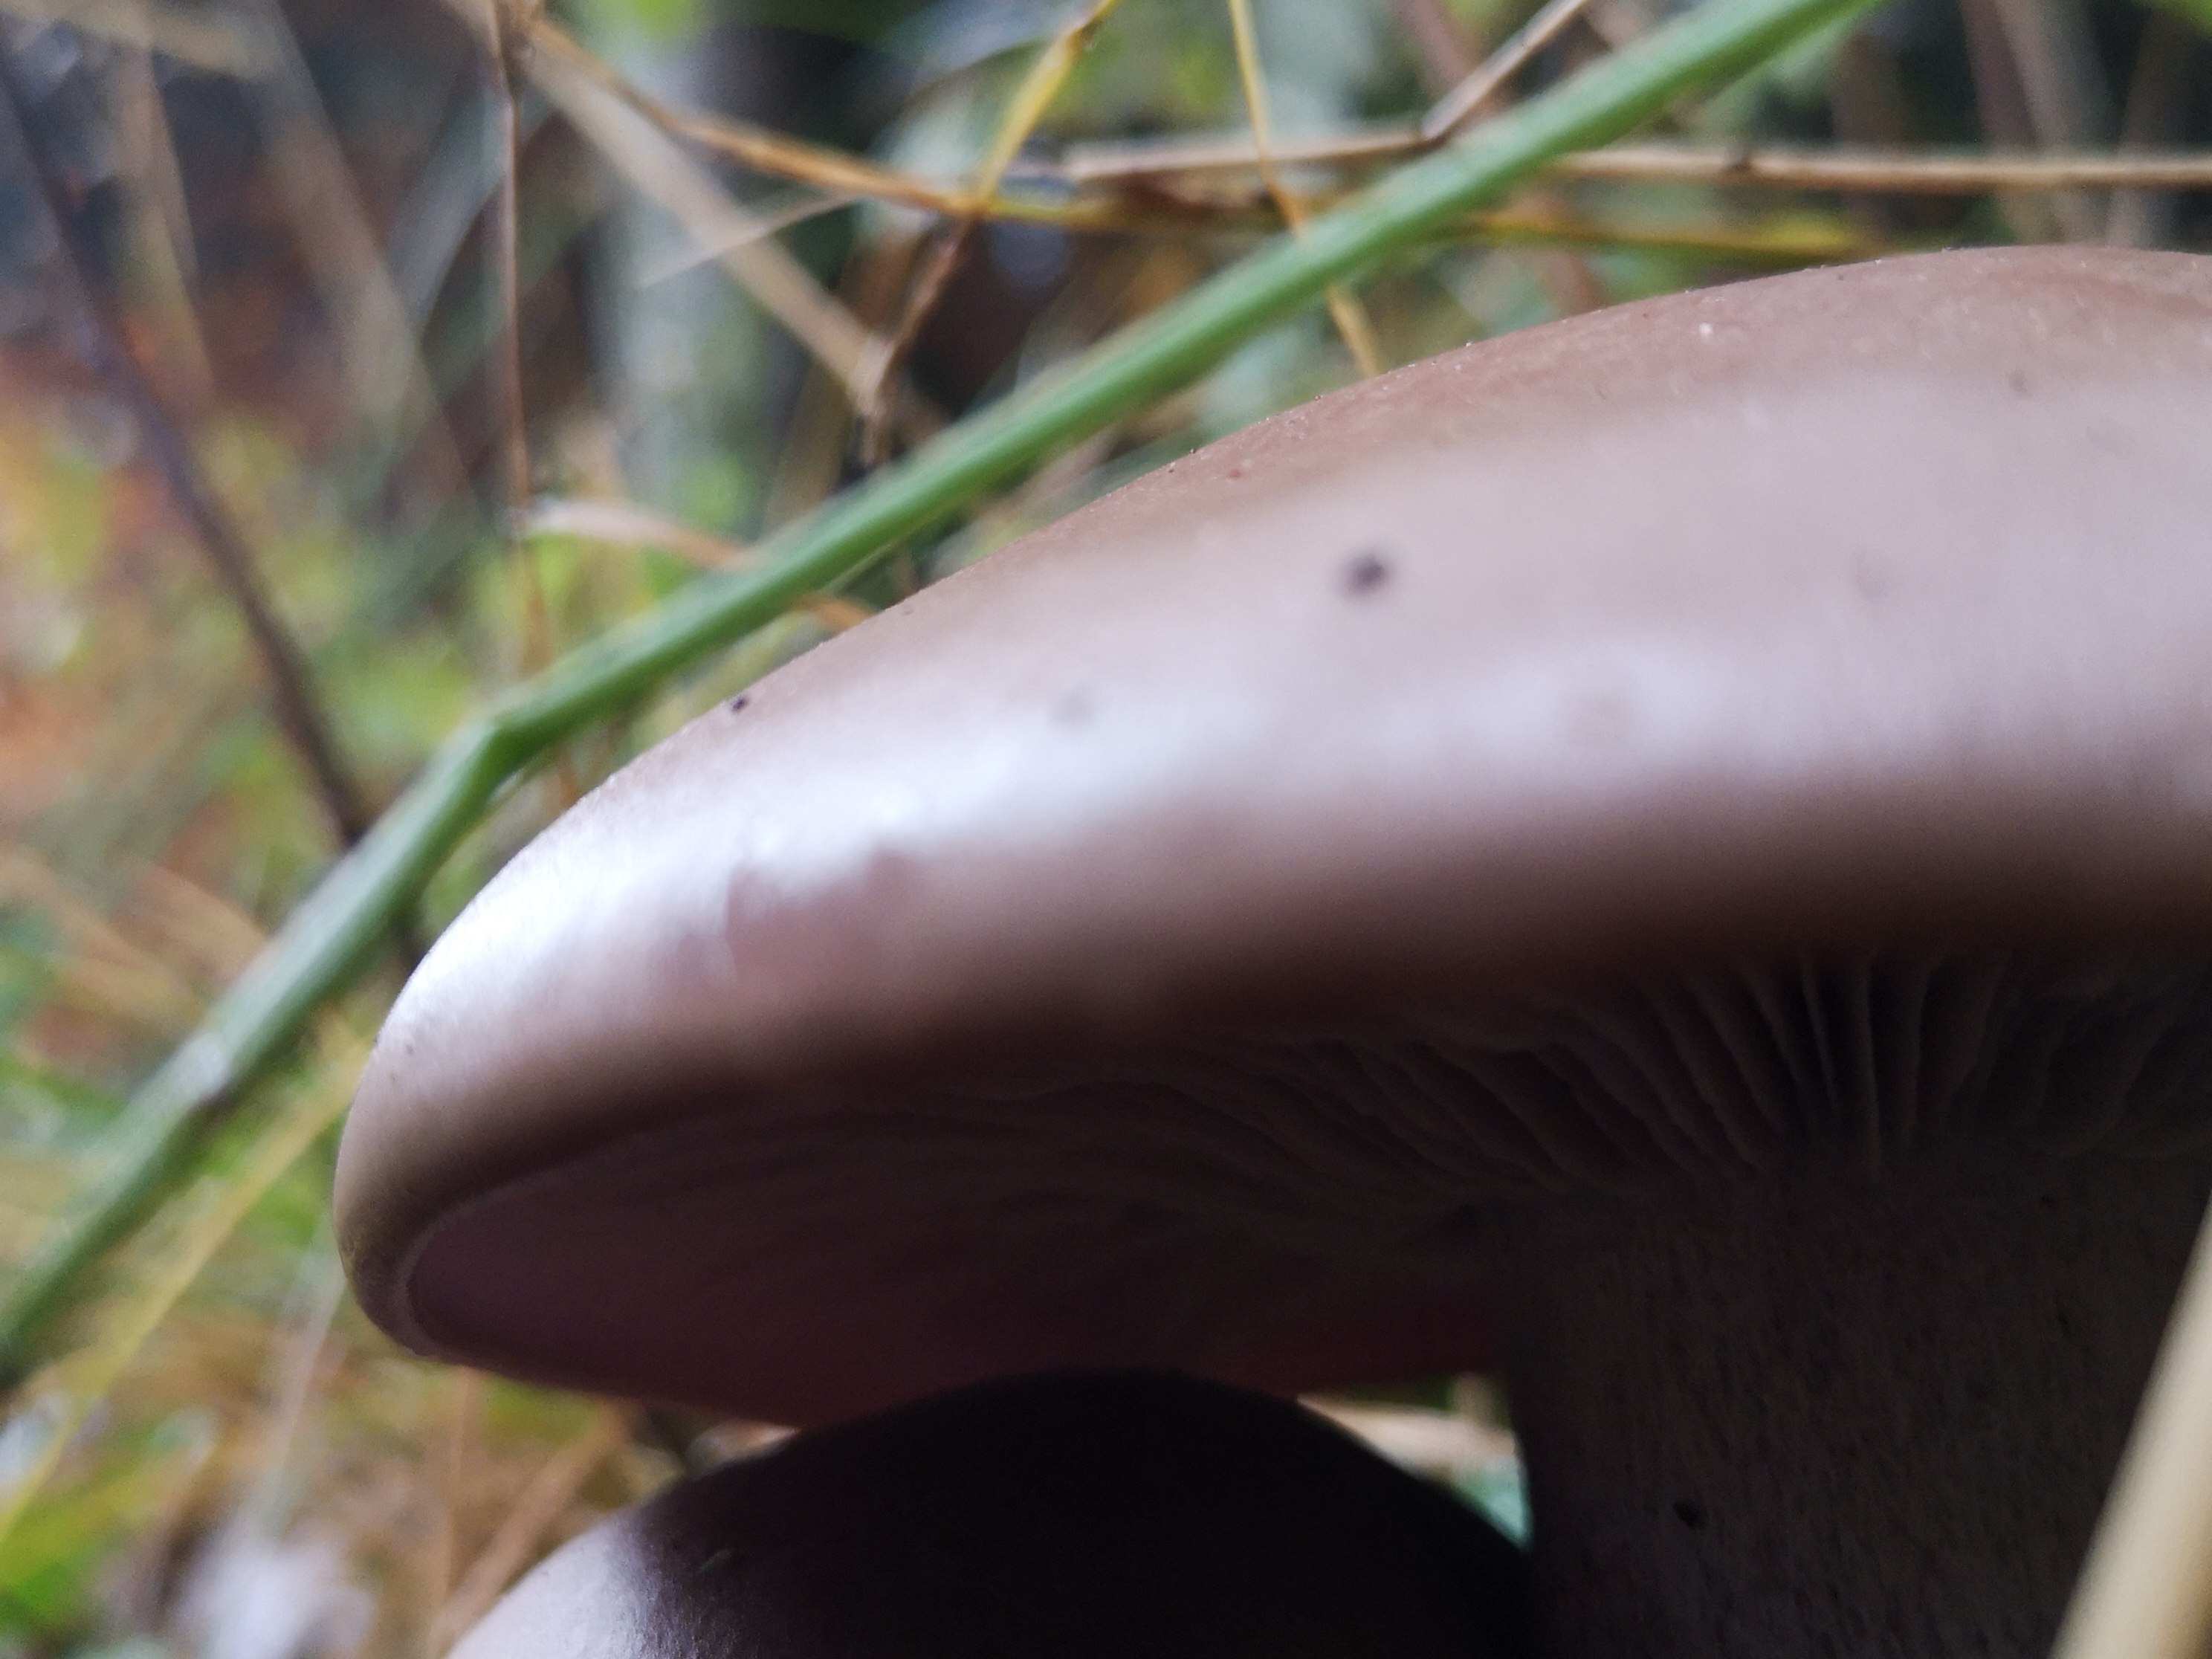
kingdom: Fungi
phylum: Basidiomycota
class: Agaricomycetes
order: Agaricales
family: Tricholomataceae
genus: Lepista
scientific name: Lepista
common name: hekseringshat
